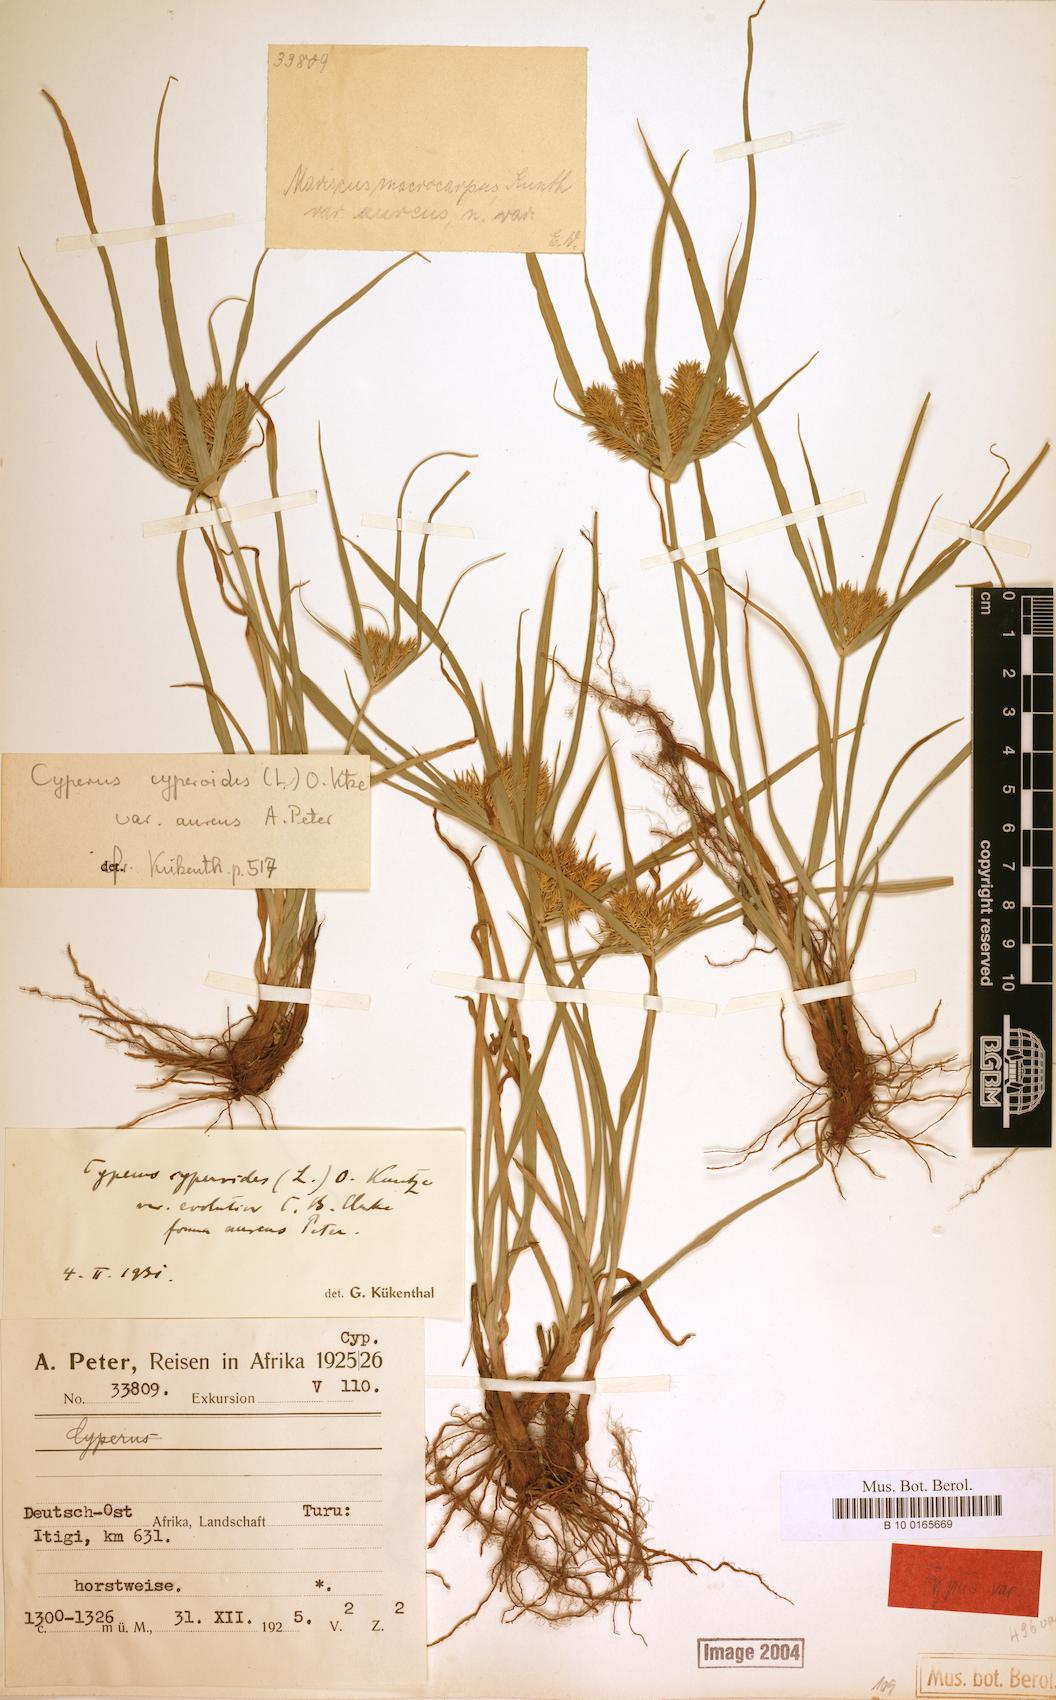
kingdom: Plantae
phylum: Tracheophyta
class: Liliopsida
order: Poales
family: Cyperaceae
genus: Cyperus
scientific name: Cyperus cyperoides
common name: Pacific island flat sedge
